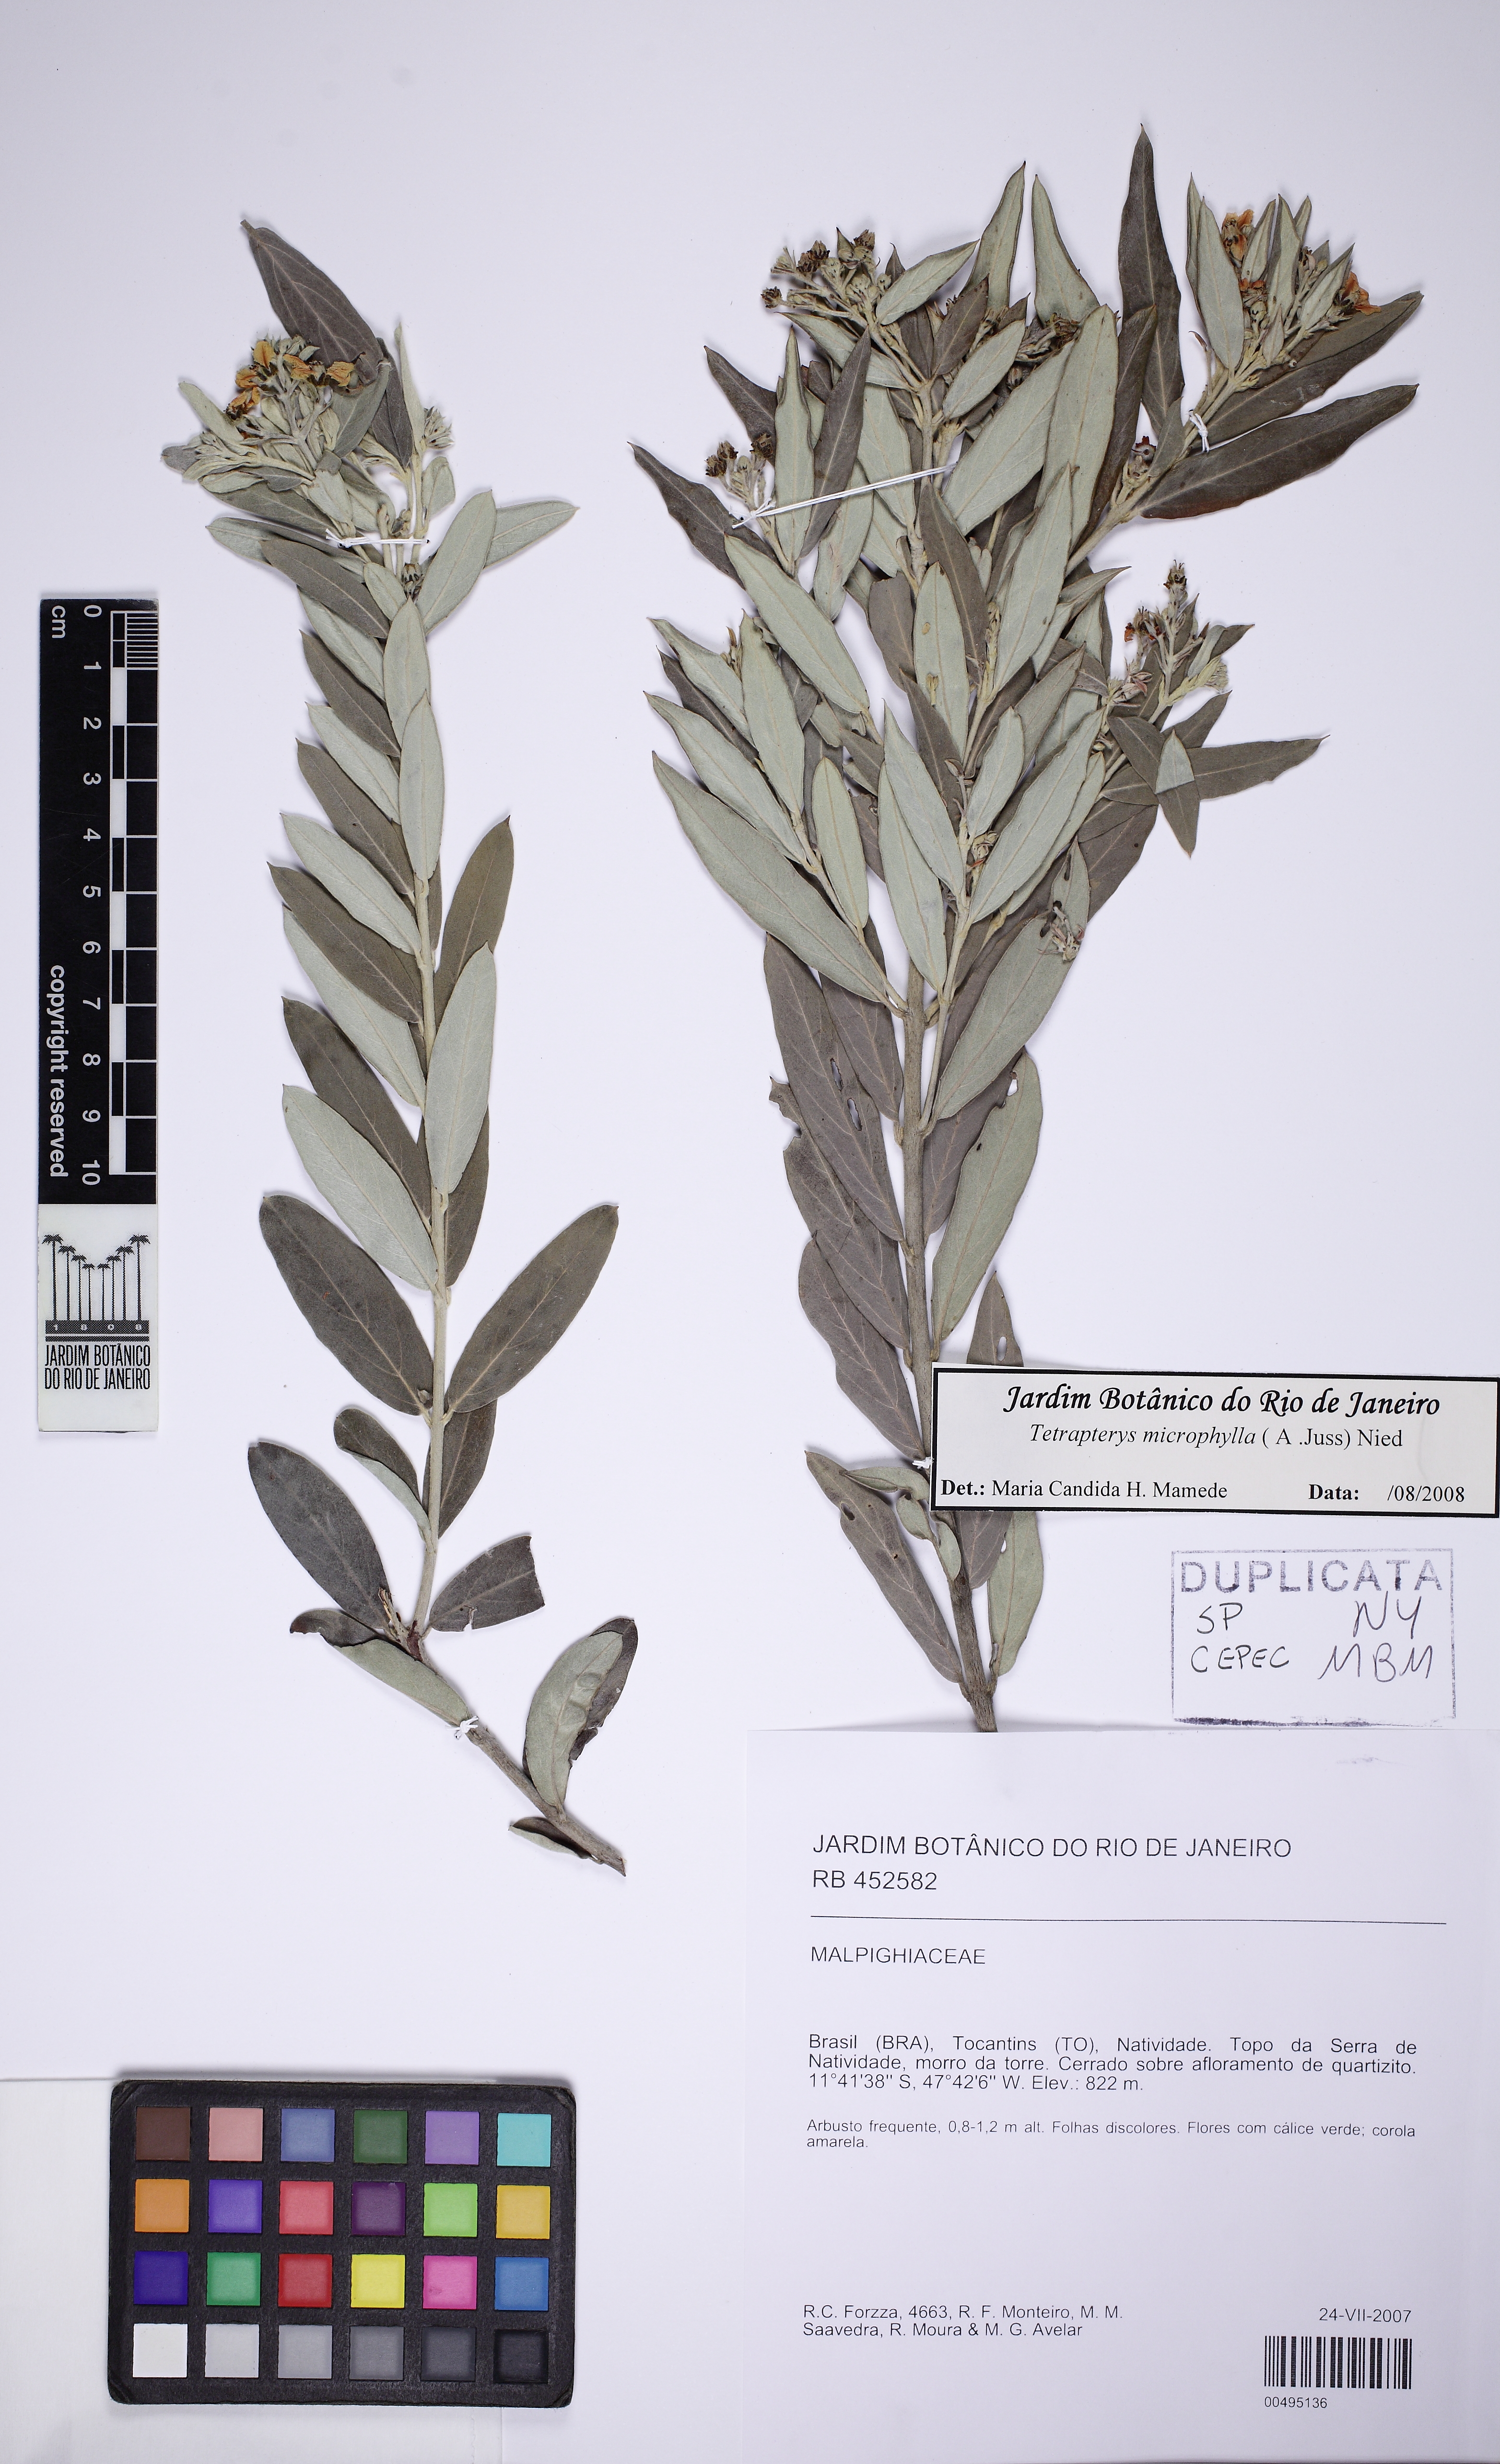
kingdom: Plantae
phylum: Tracheophyta
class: Magnoliopsida
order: Malpighiales
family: Malpighiaceae
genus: Glicophyllum
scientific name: Glicophyllum microphyllum
